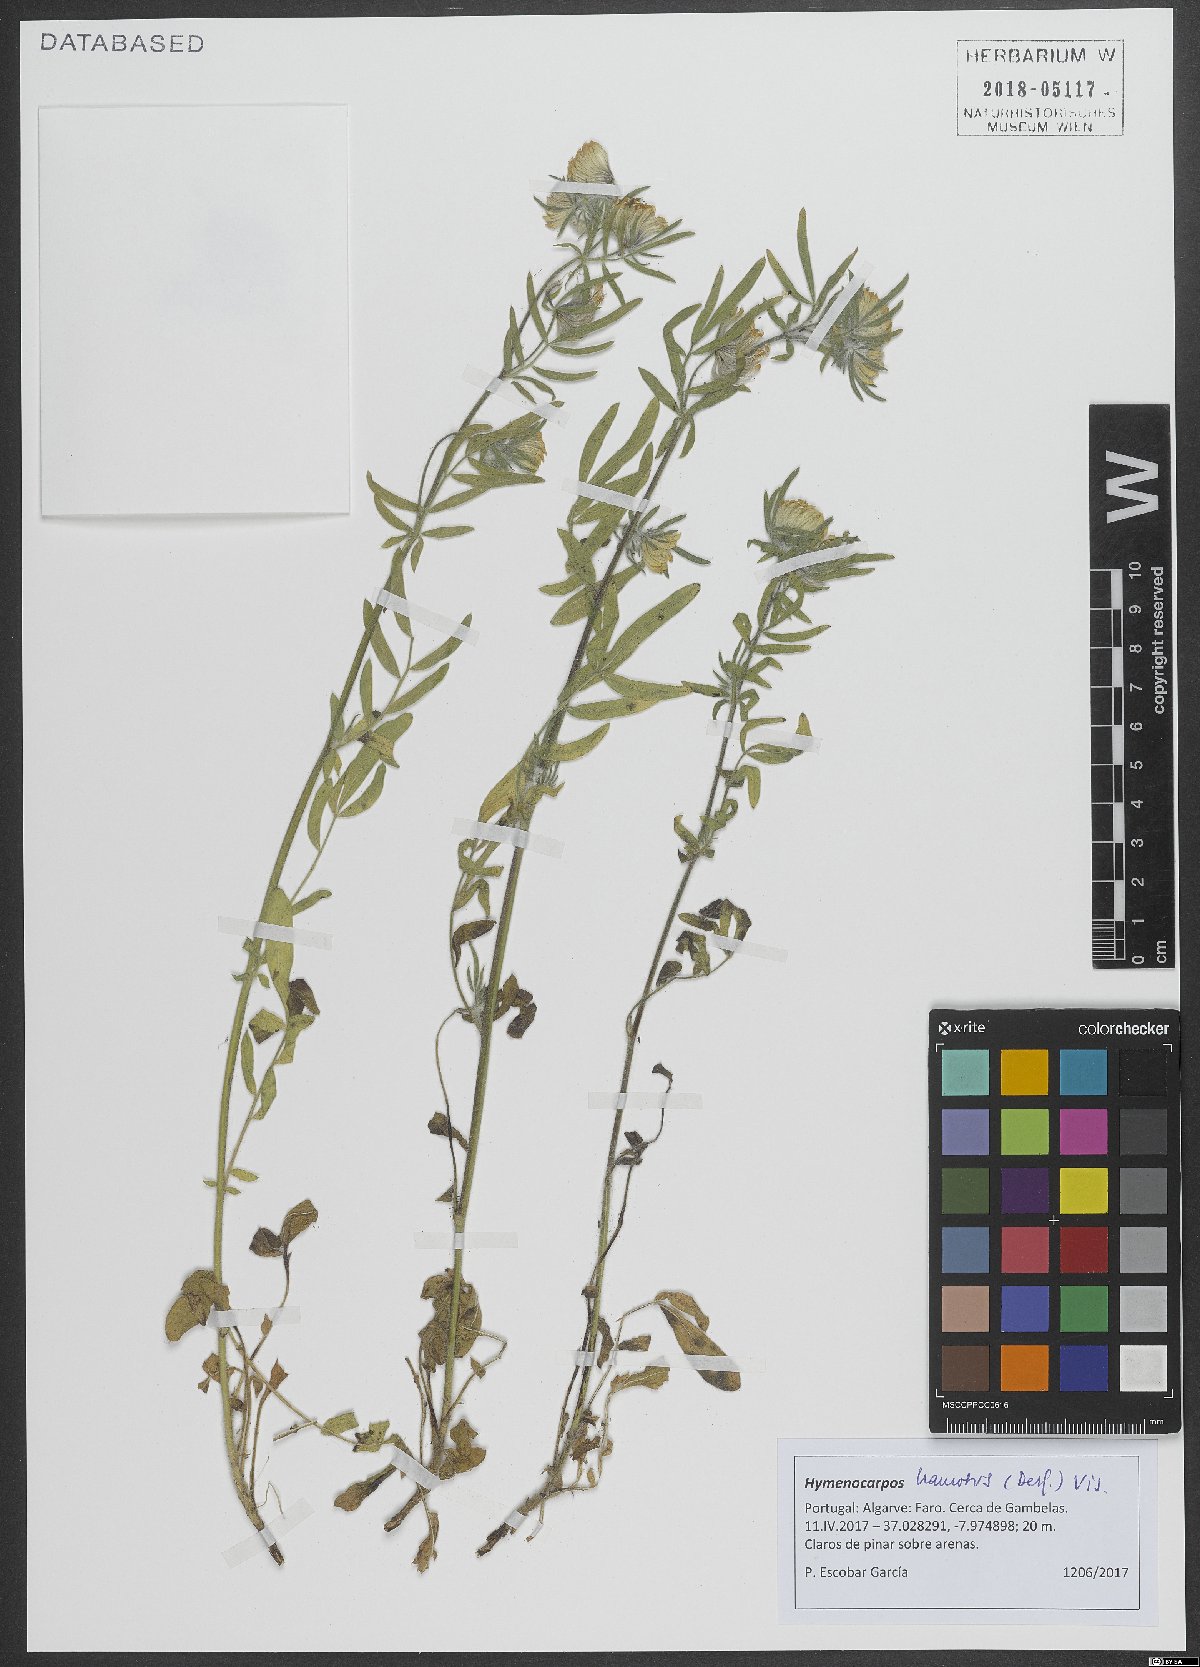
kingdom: Plantae
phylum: Tracheophyta
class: Magnoliopsida
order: Fabales
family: Fabaceae
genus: Anthyllis
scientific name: Anthyllis hamosa
